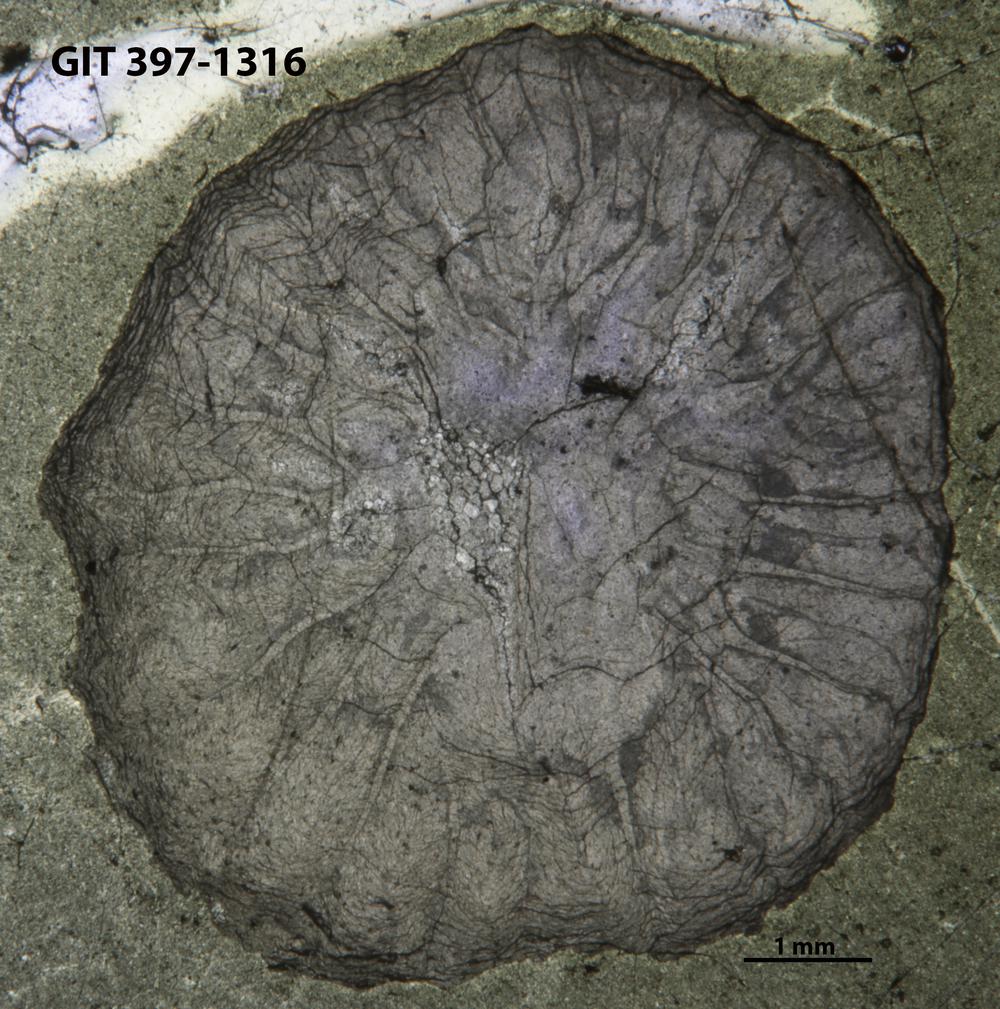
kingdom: Animalia
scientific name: Animalia
